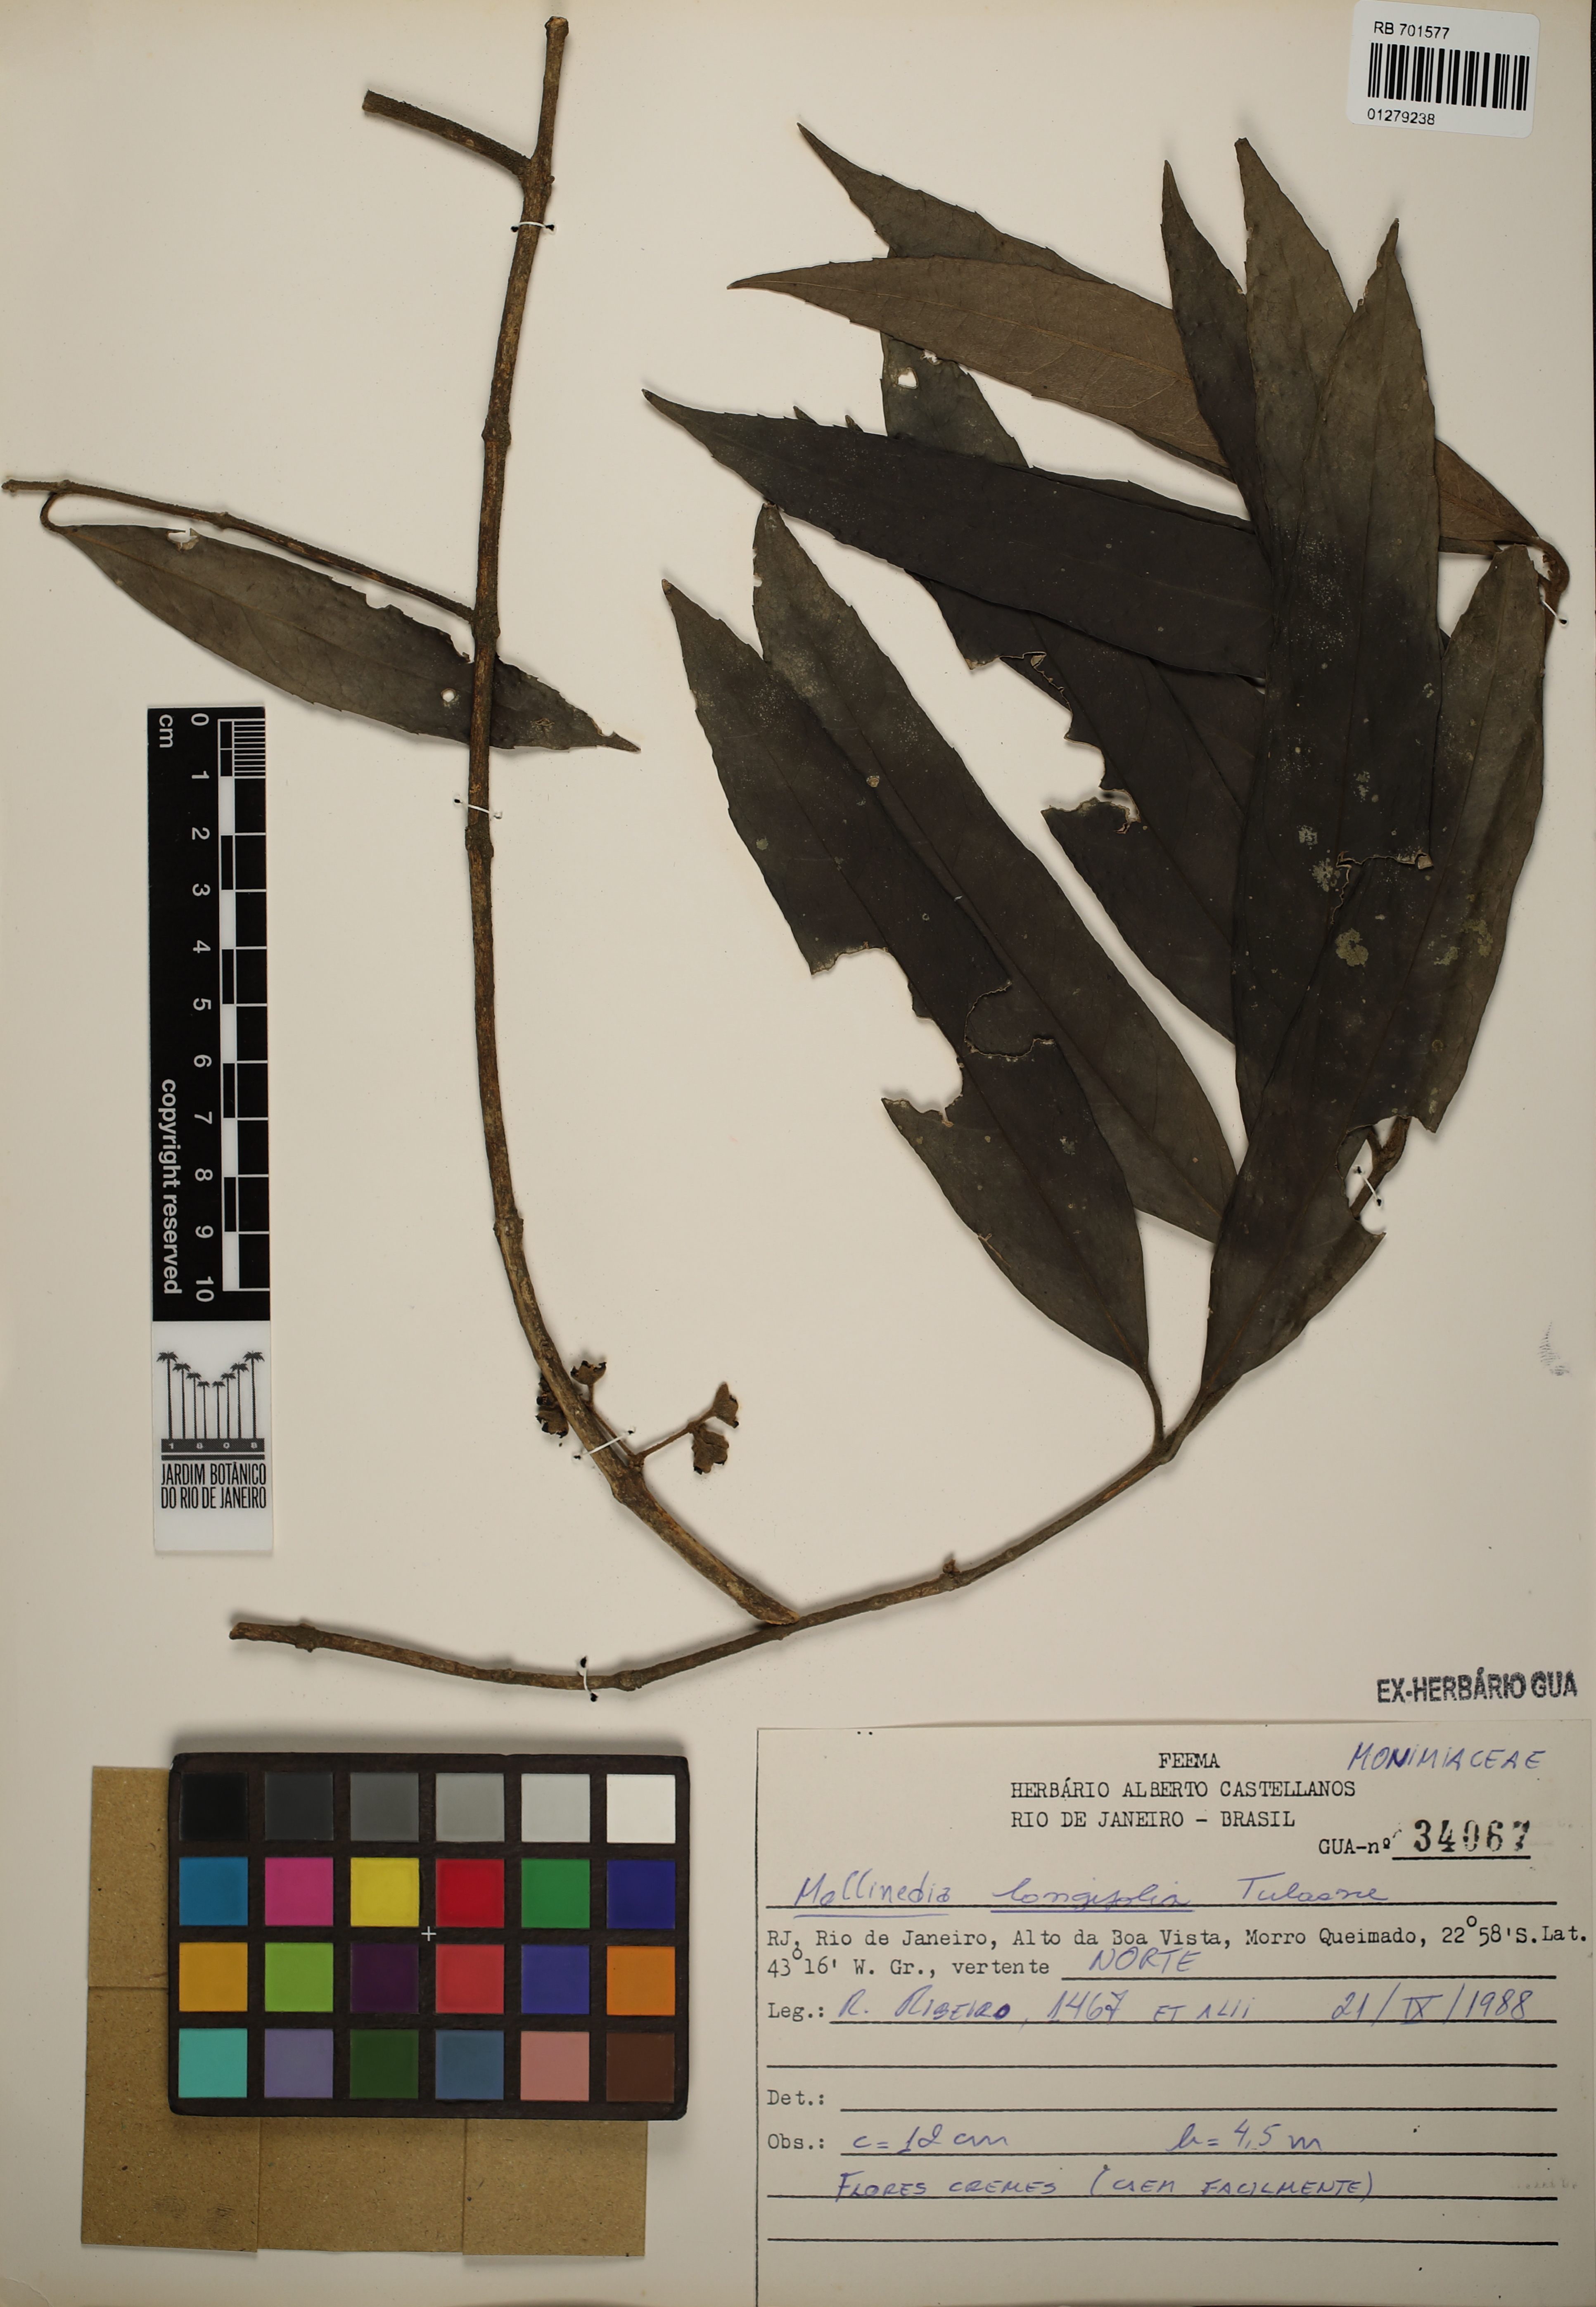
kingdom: Plantae
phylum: Tracheophyta
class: Magnoliopsida
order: Laurales
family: Monimiaceae
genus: Mollinedia
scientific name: Mollinedia longifolia
